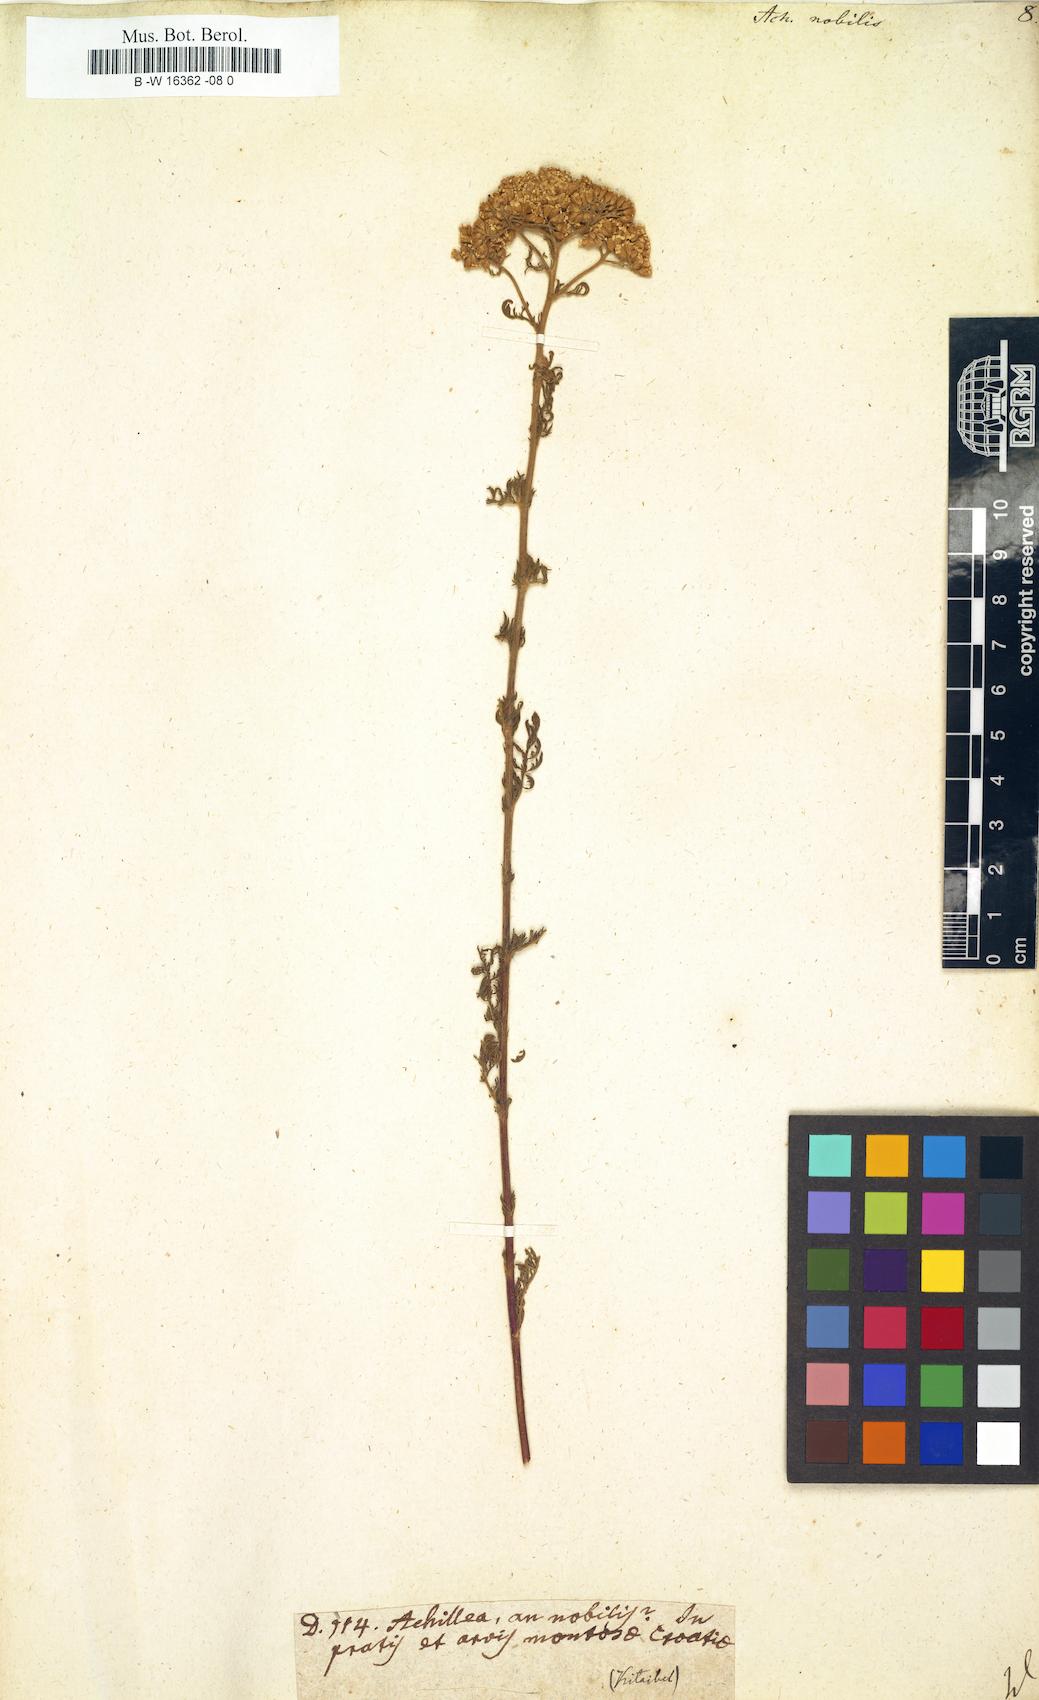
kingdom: Plantae
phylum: Tracheophyta
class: Magnoliopsida
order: Asterales
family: Asteraceae
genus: Achillea
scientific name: Achillea nobilis
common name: Noble yarrow
